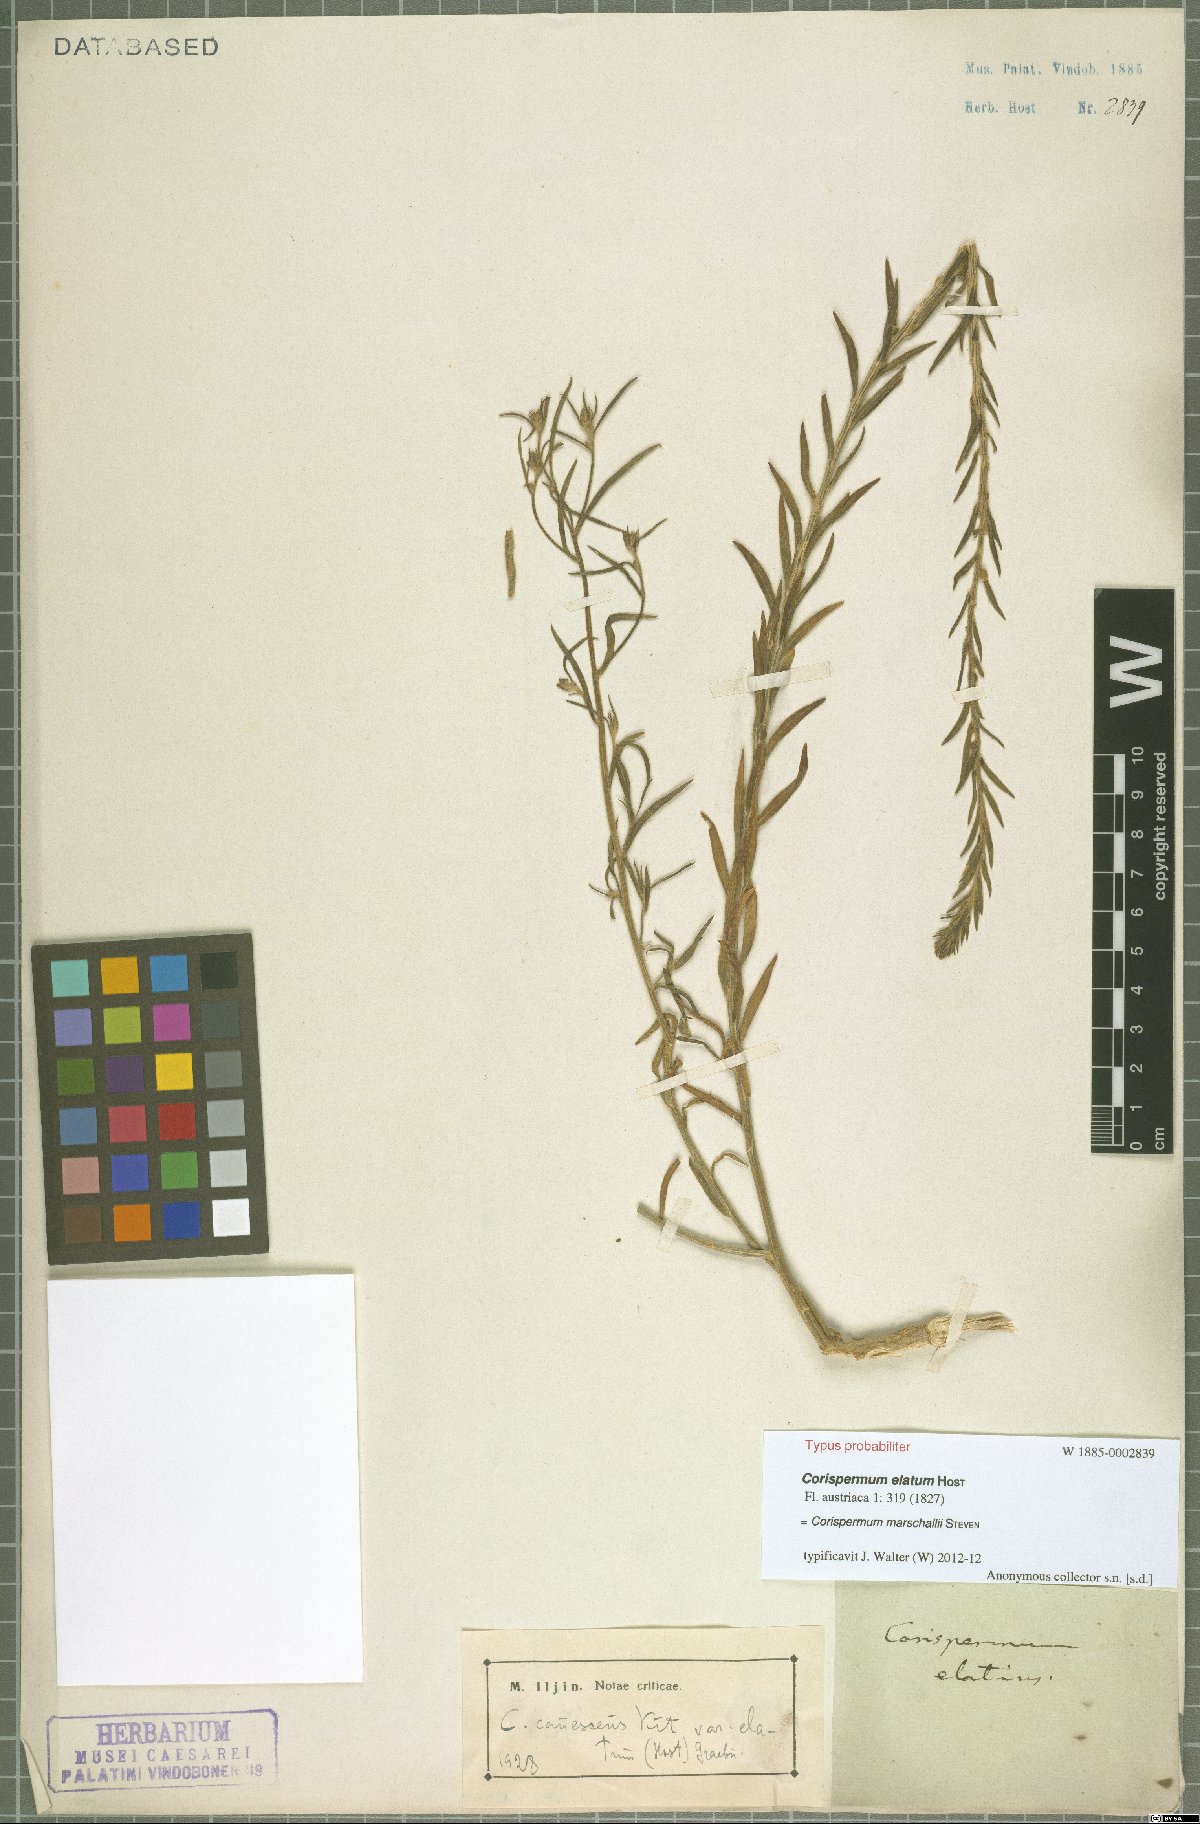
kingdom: Plantae
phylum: Tracheophyta
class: Magnoliopsida
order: Caryophyllales
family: Amaranthaceae
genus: Corispermum
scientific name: Corispermum marschallii
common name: Grey tickseed
